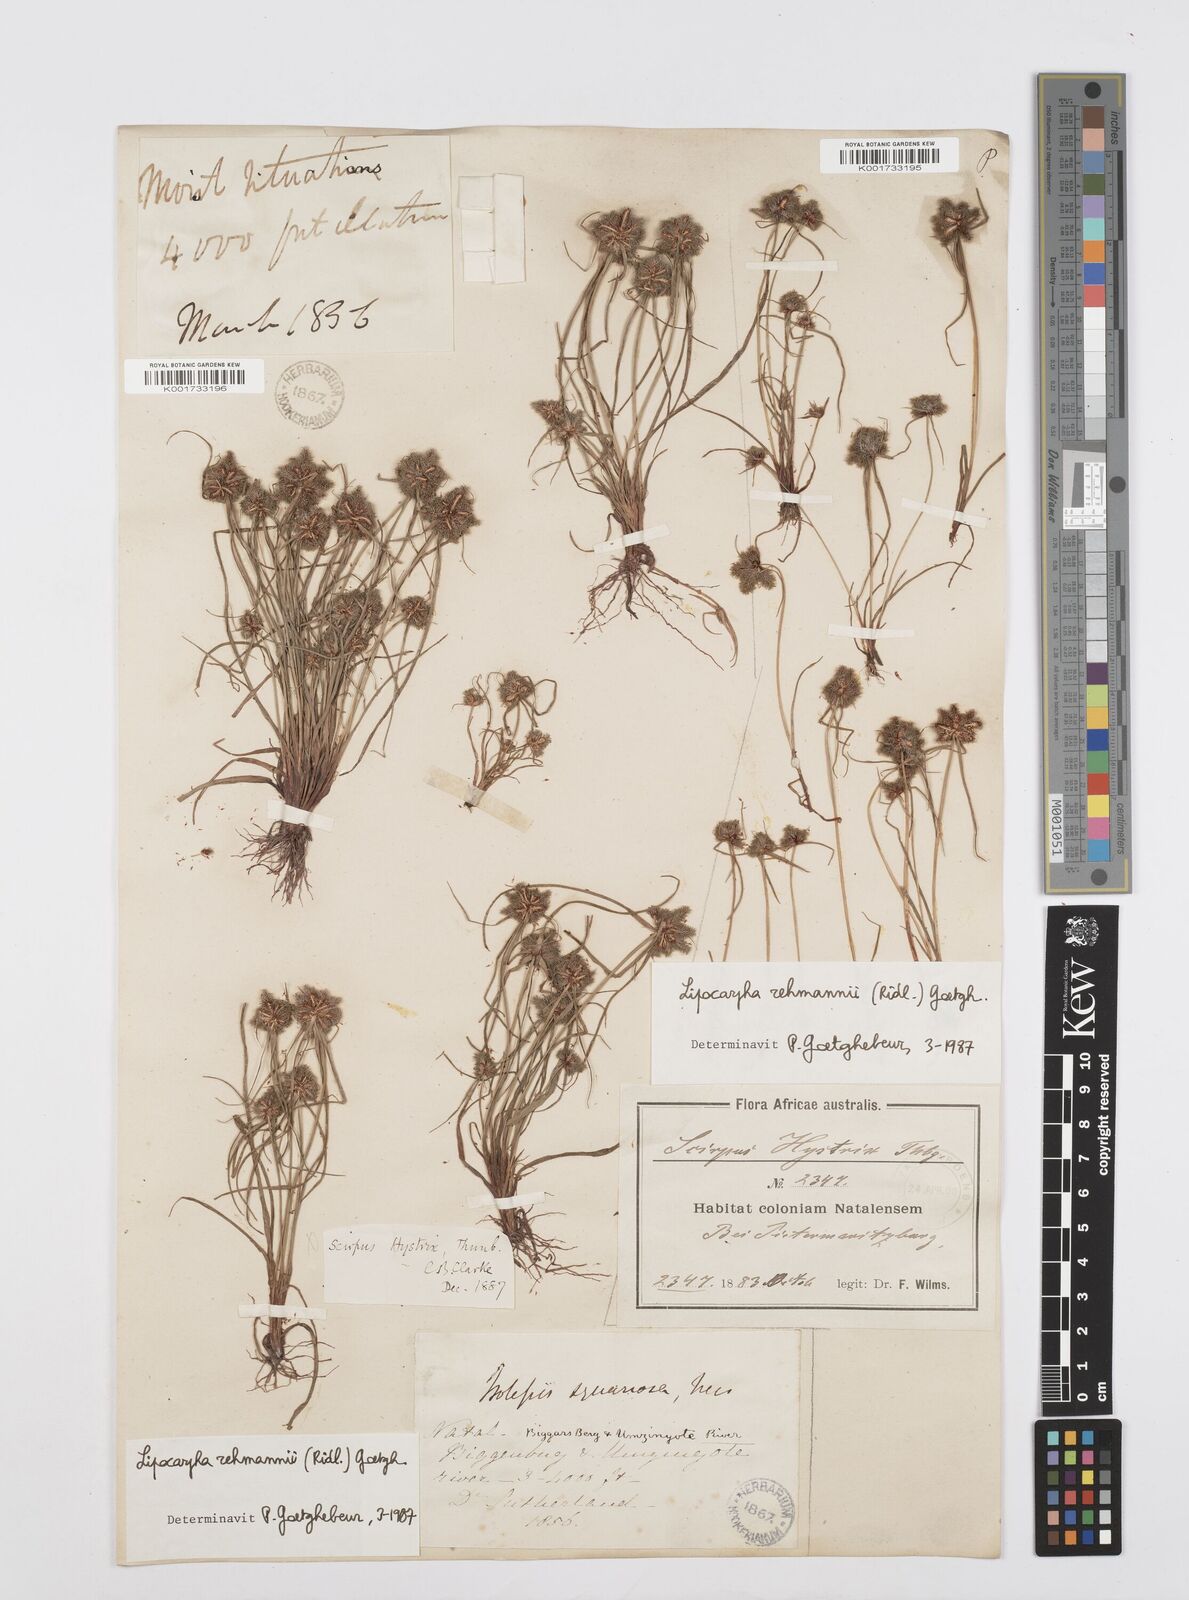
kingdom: Plantae
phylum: Tracheophyta
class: Liliopsida
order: Poales
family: Cyperaceae
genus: Cyperus
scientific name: Cyperus sanguinolentus
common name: Purpleglume flatsedge
